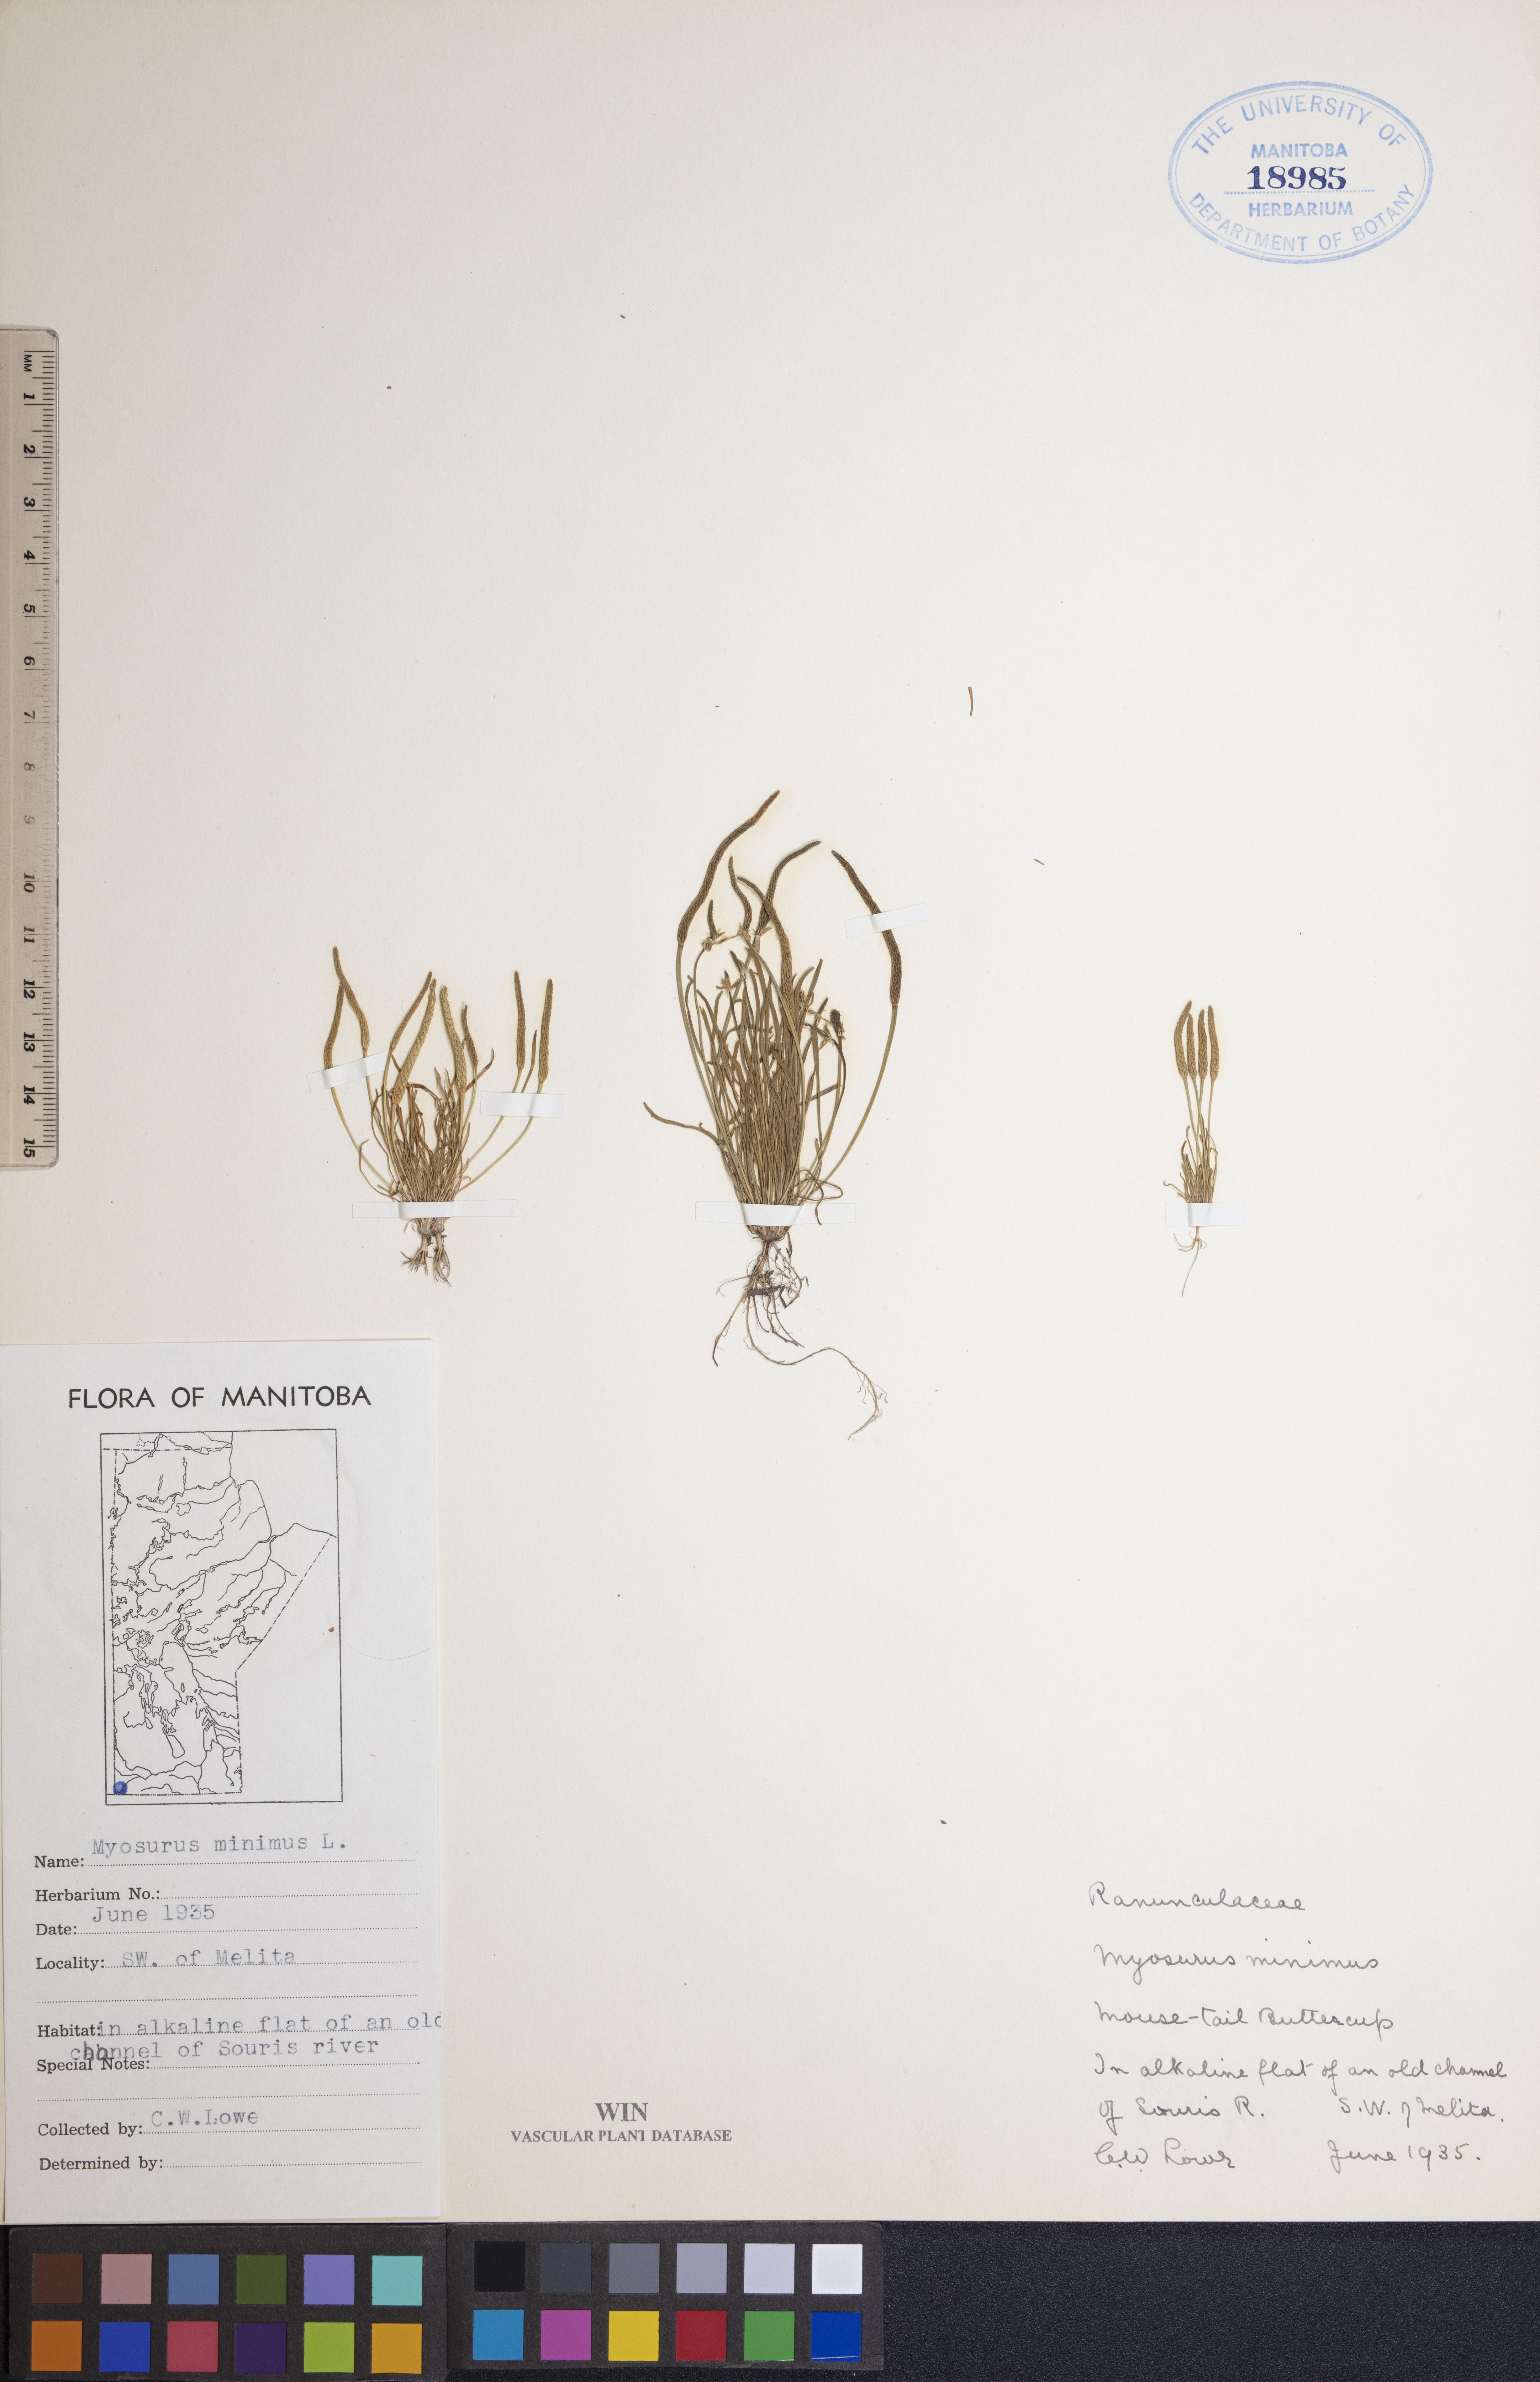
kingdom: Plantae
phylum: Tracheophyta
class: Magnoliopsida
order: Ranunculales
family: Ranunculaceae
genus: Myosurus
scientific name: Myosurus minimus
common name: Mousetail
